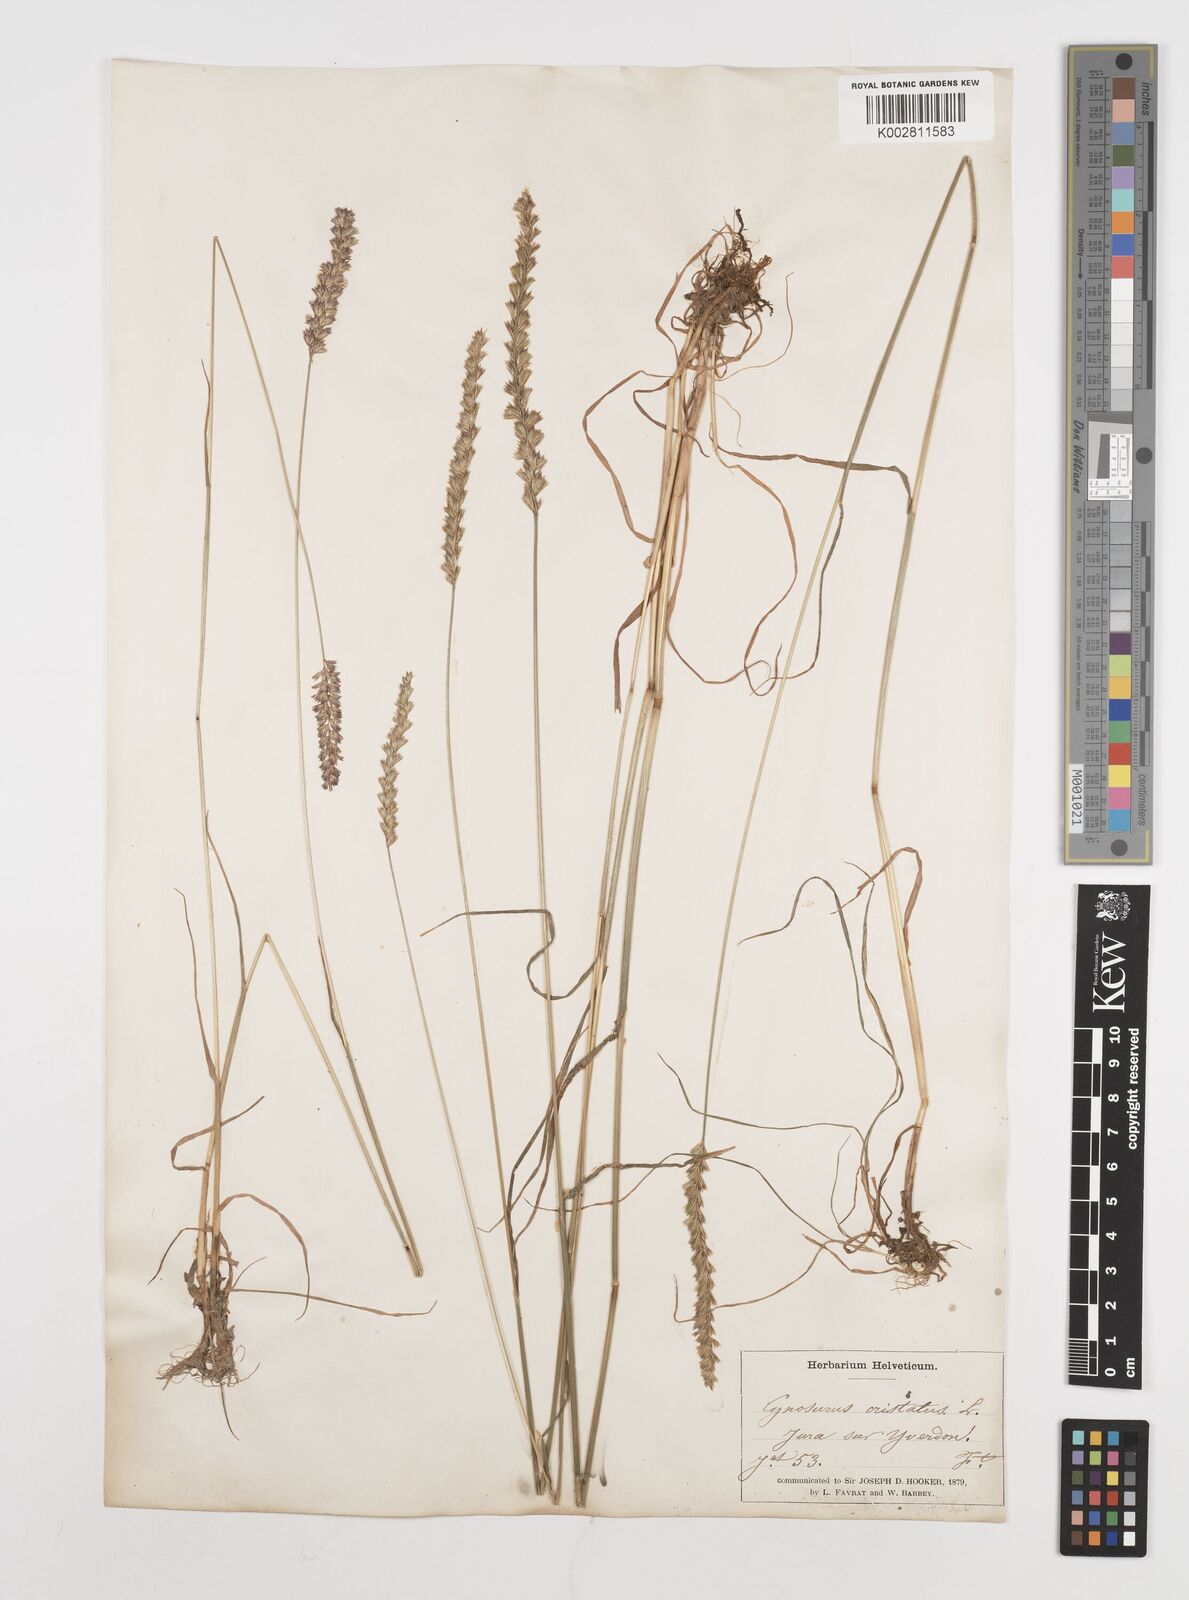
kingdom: Plantae
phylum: Tracheophyta
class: Liliopsida
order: Poales
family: Poaceae
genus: Cynosurus
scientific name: Cynosurus cristatus
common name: Crested dog's-tail
